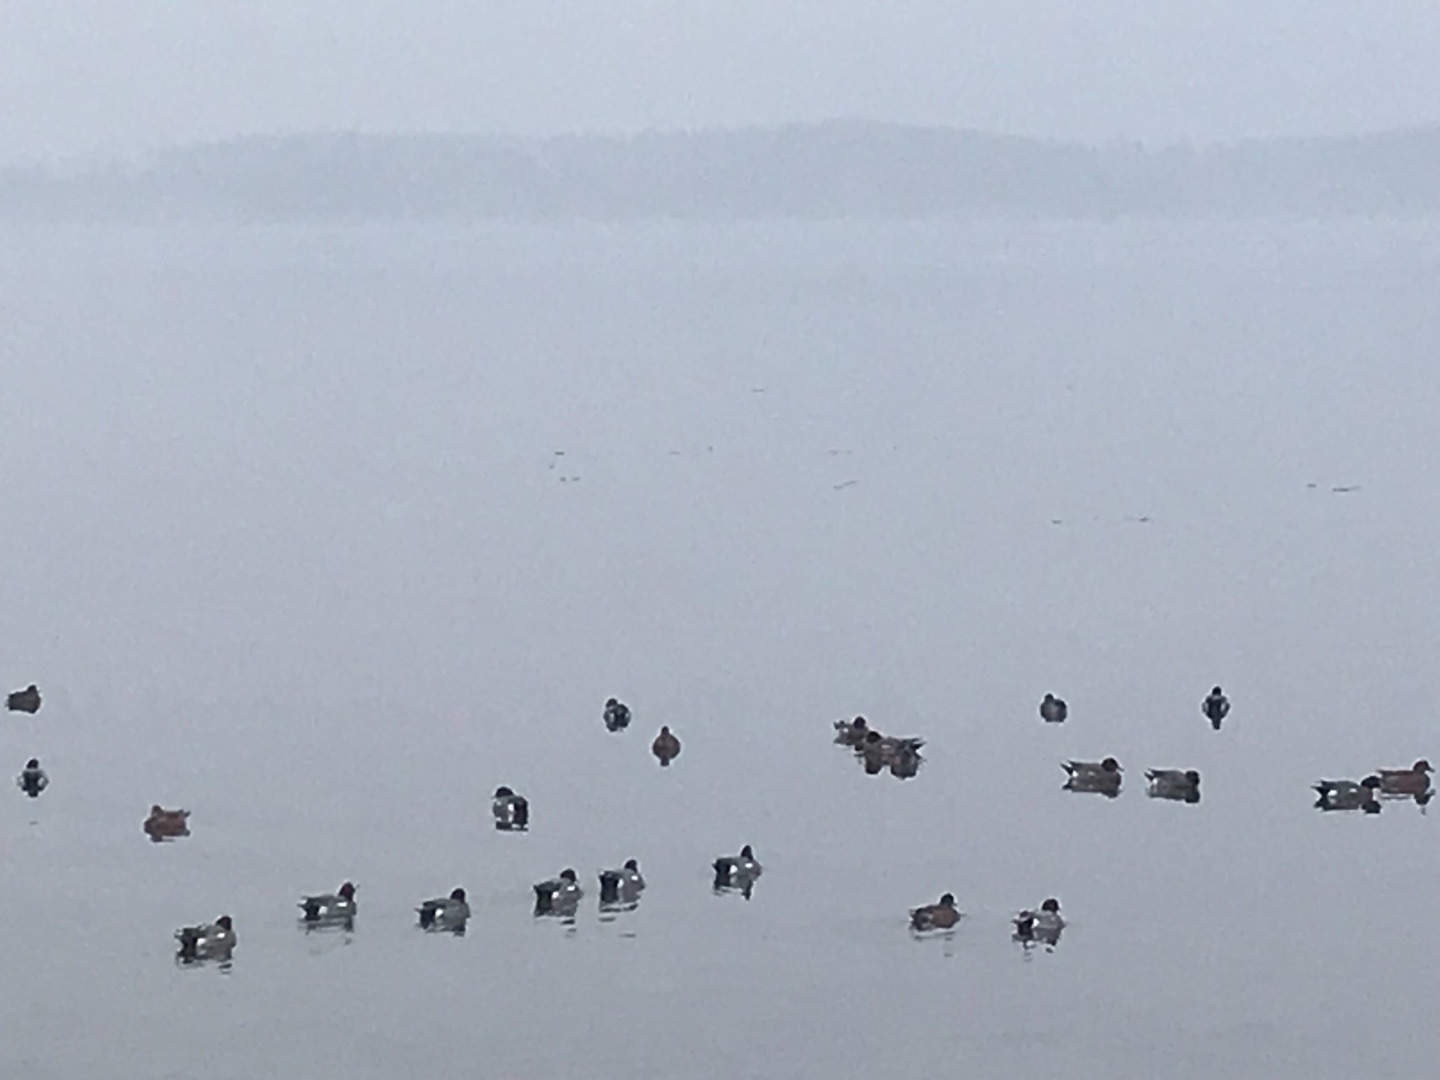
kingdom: Animalia
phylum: Chordata
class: Aves
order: Anseriformes
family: Anatidae
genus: Mareca
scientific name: Mareca penelope
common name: Pibeand
